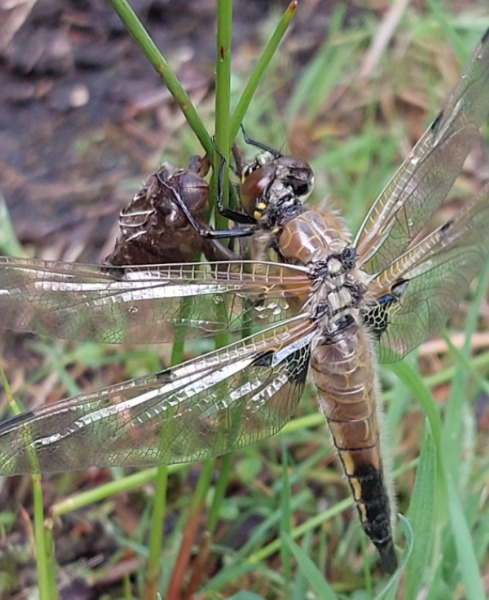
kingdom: Animalia
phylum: Arthropoda
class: Insecta
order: Odonata
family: Libellulidae
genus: Libellula
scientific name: Libellula quadrimaculata
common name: Fireplettet libel
